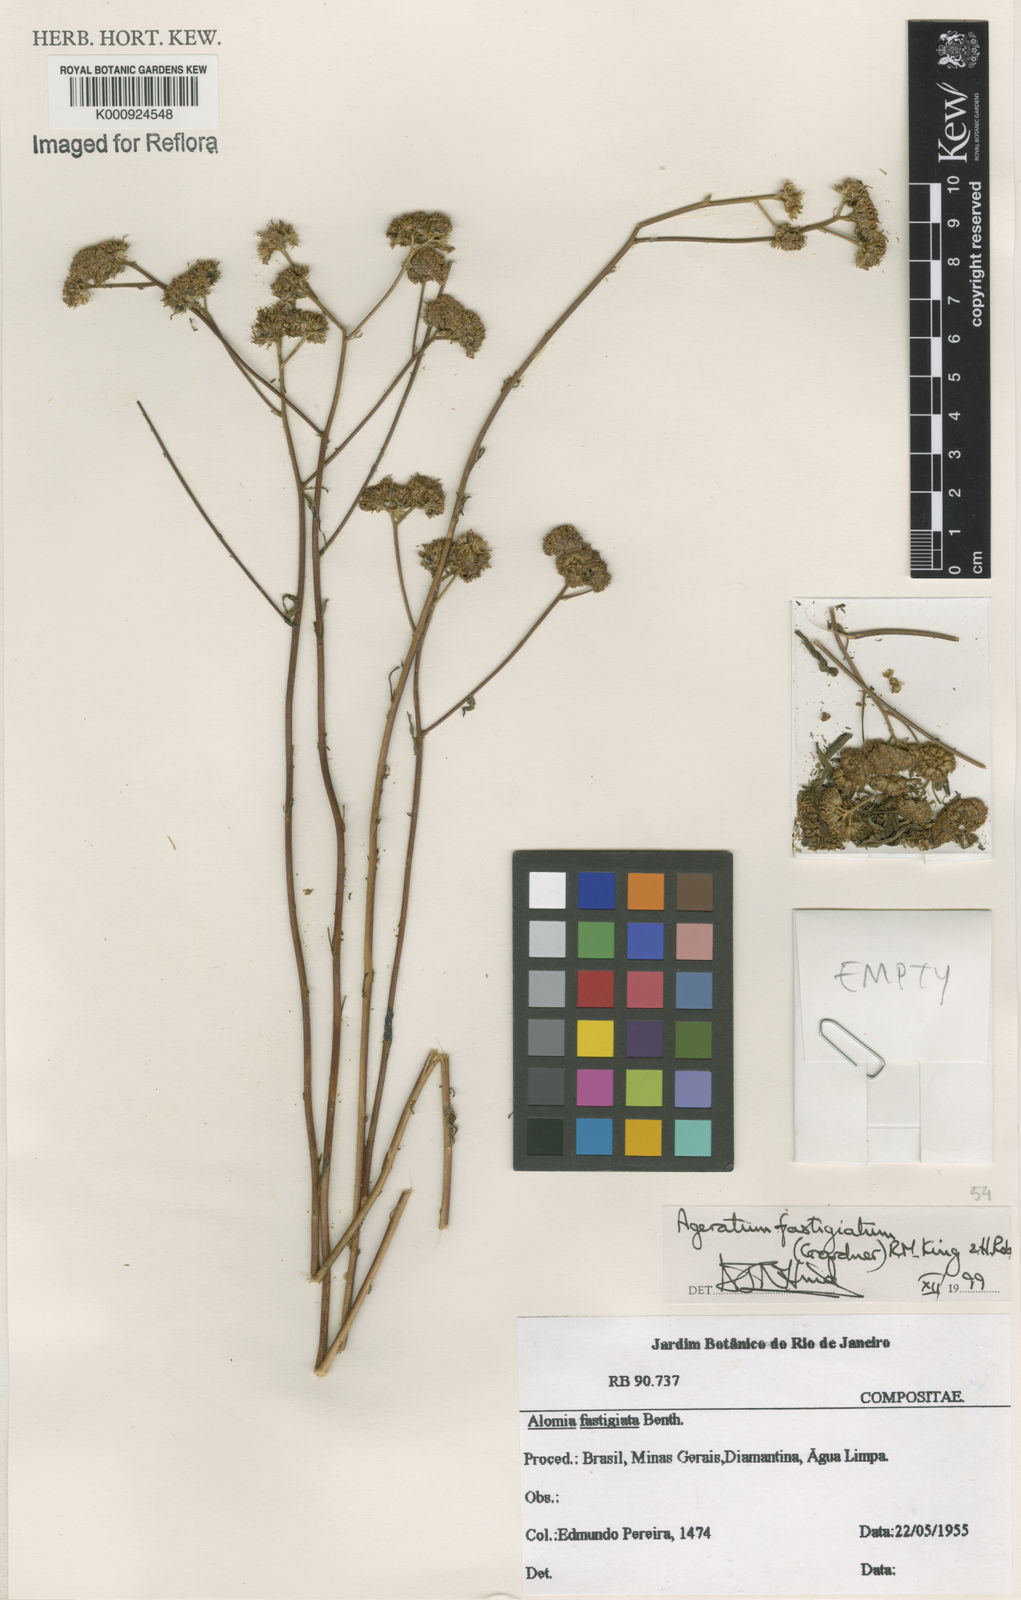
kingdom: Plantae
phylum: Tracheophyta
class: Magnoliopsida
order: Asterales
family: Asteraceae
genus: Ageratum
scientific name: Ageratum fastigiatum
